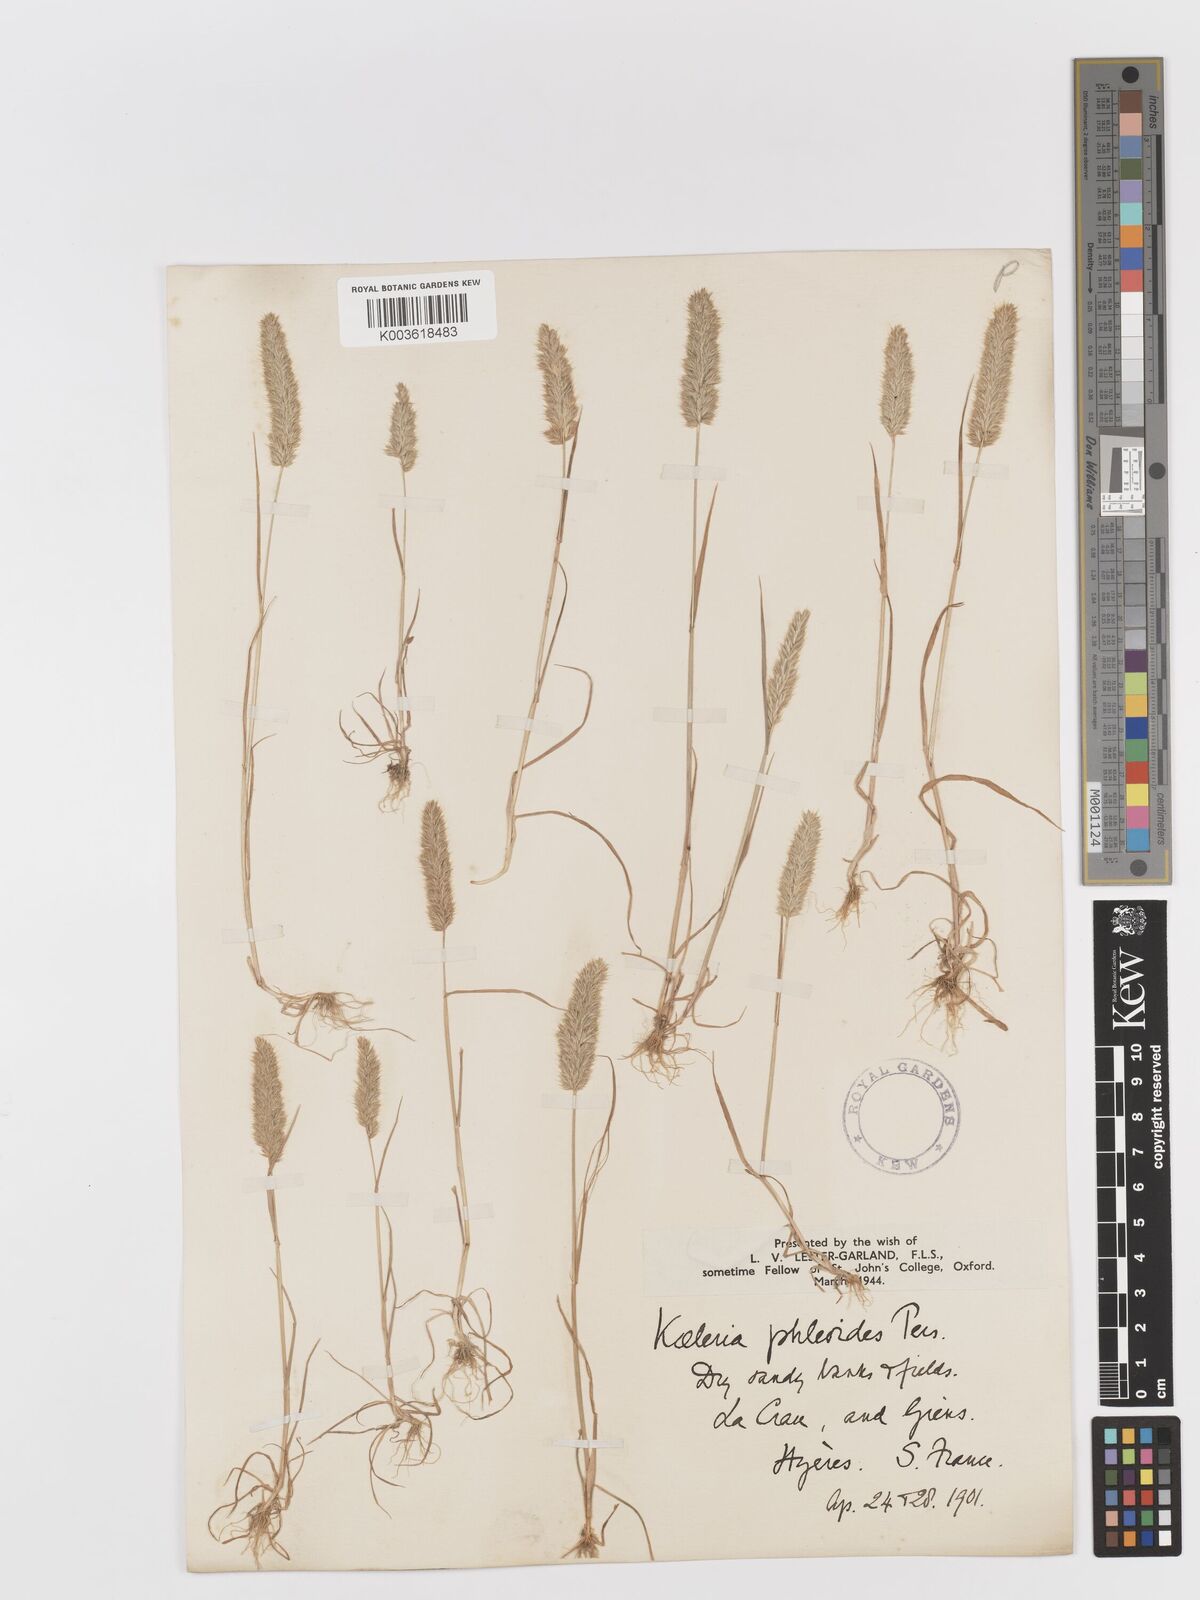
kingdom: Plantae
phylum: Tracheophyta
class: Liliopsida
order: Poales
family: Poaceae
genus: Rostraria
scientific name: Rostraria cristata
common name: Mediterranean hair-grass
